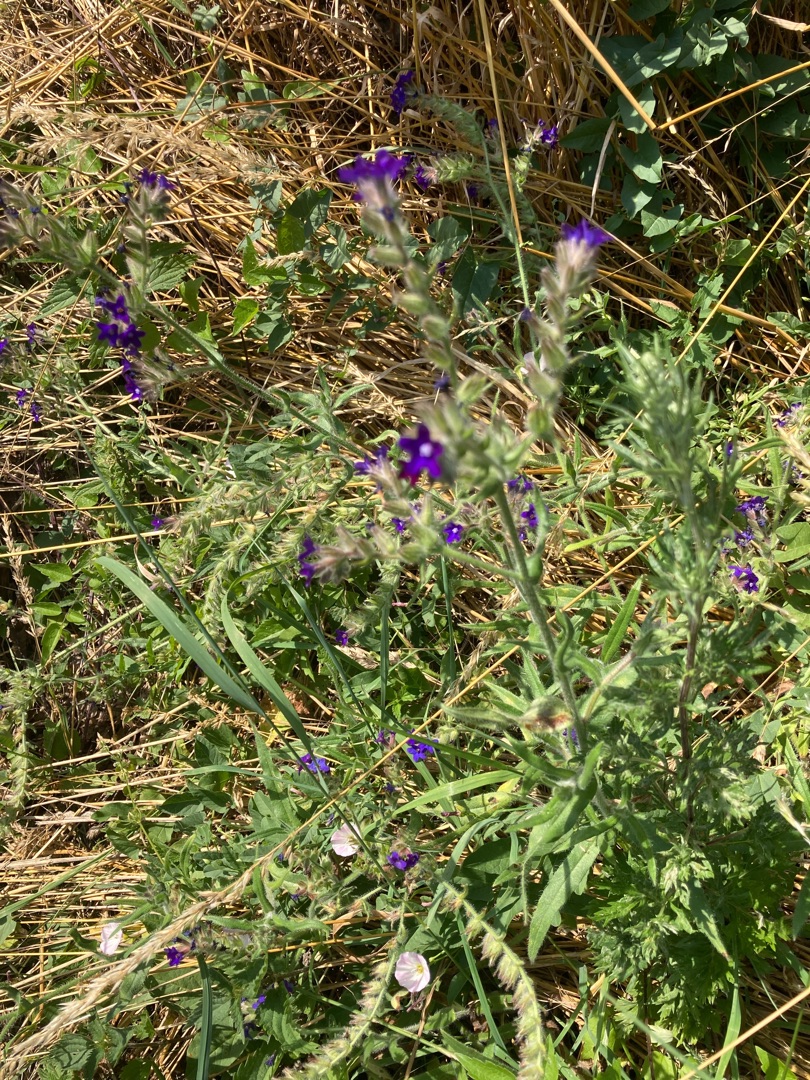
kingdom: Plantae
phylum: Tracheophyta
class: Magnoliopsida
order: Boraginales
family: Boraginaceae
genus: Anchusa
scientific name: Anchusa officinalis
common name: Læge-oksetunge
